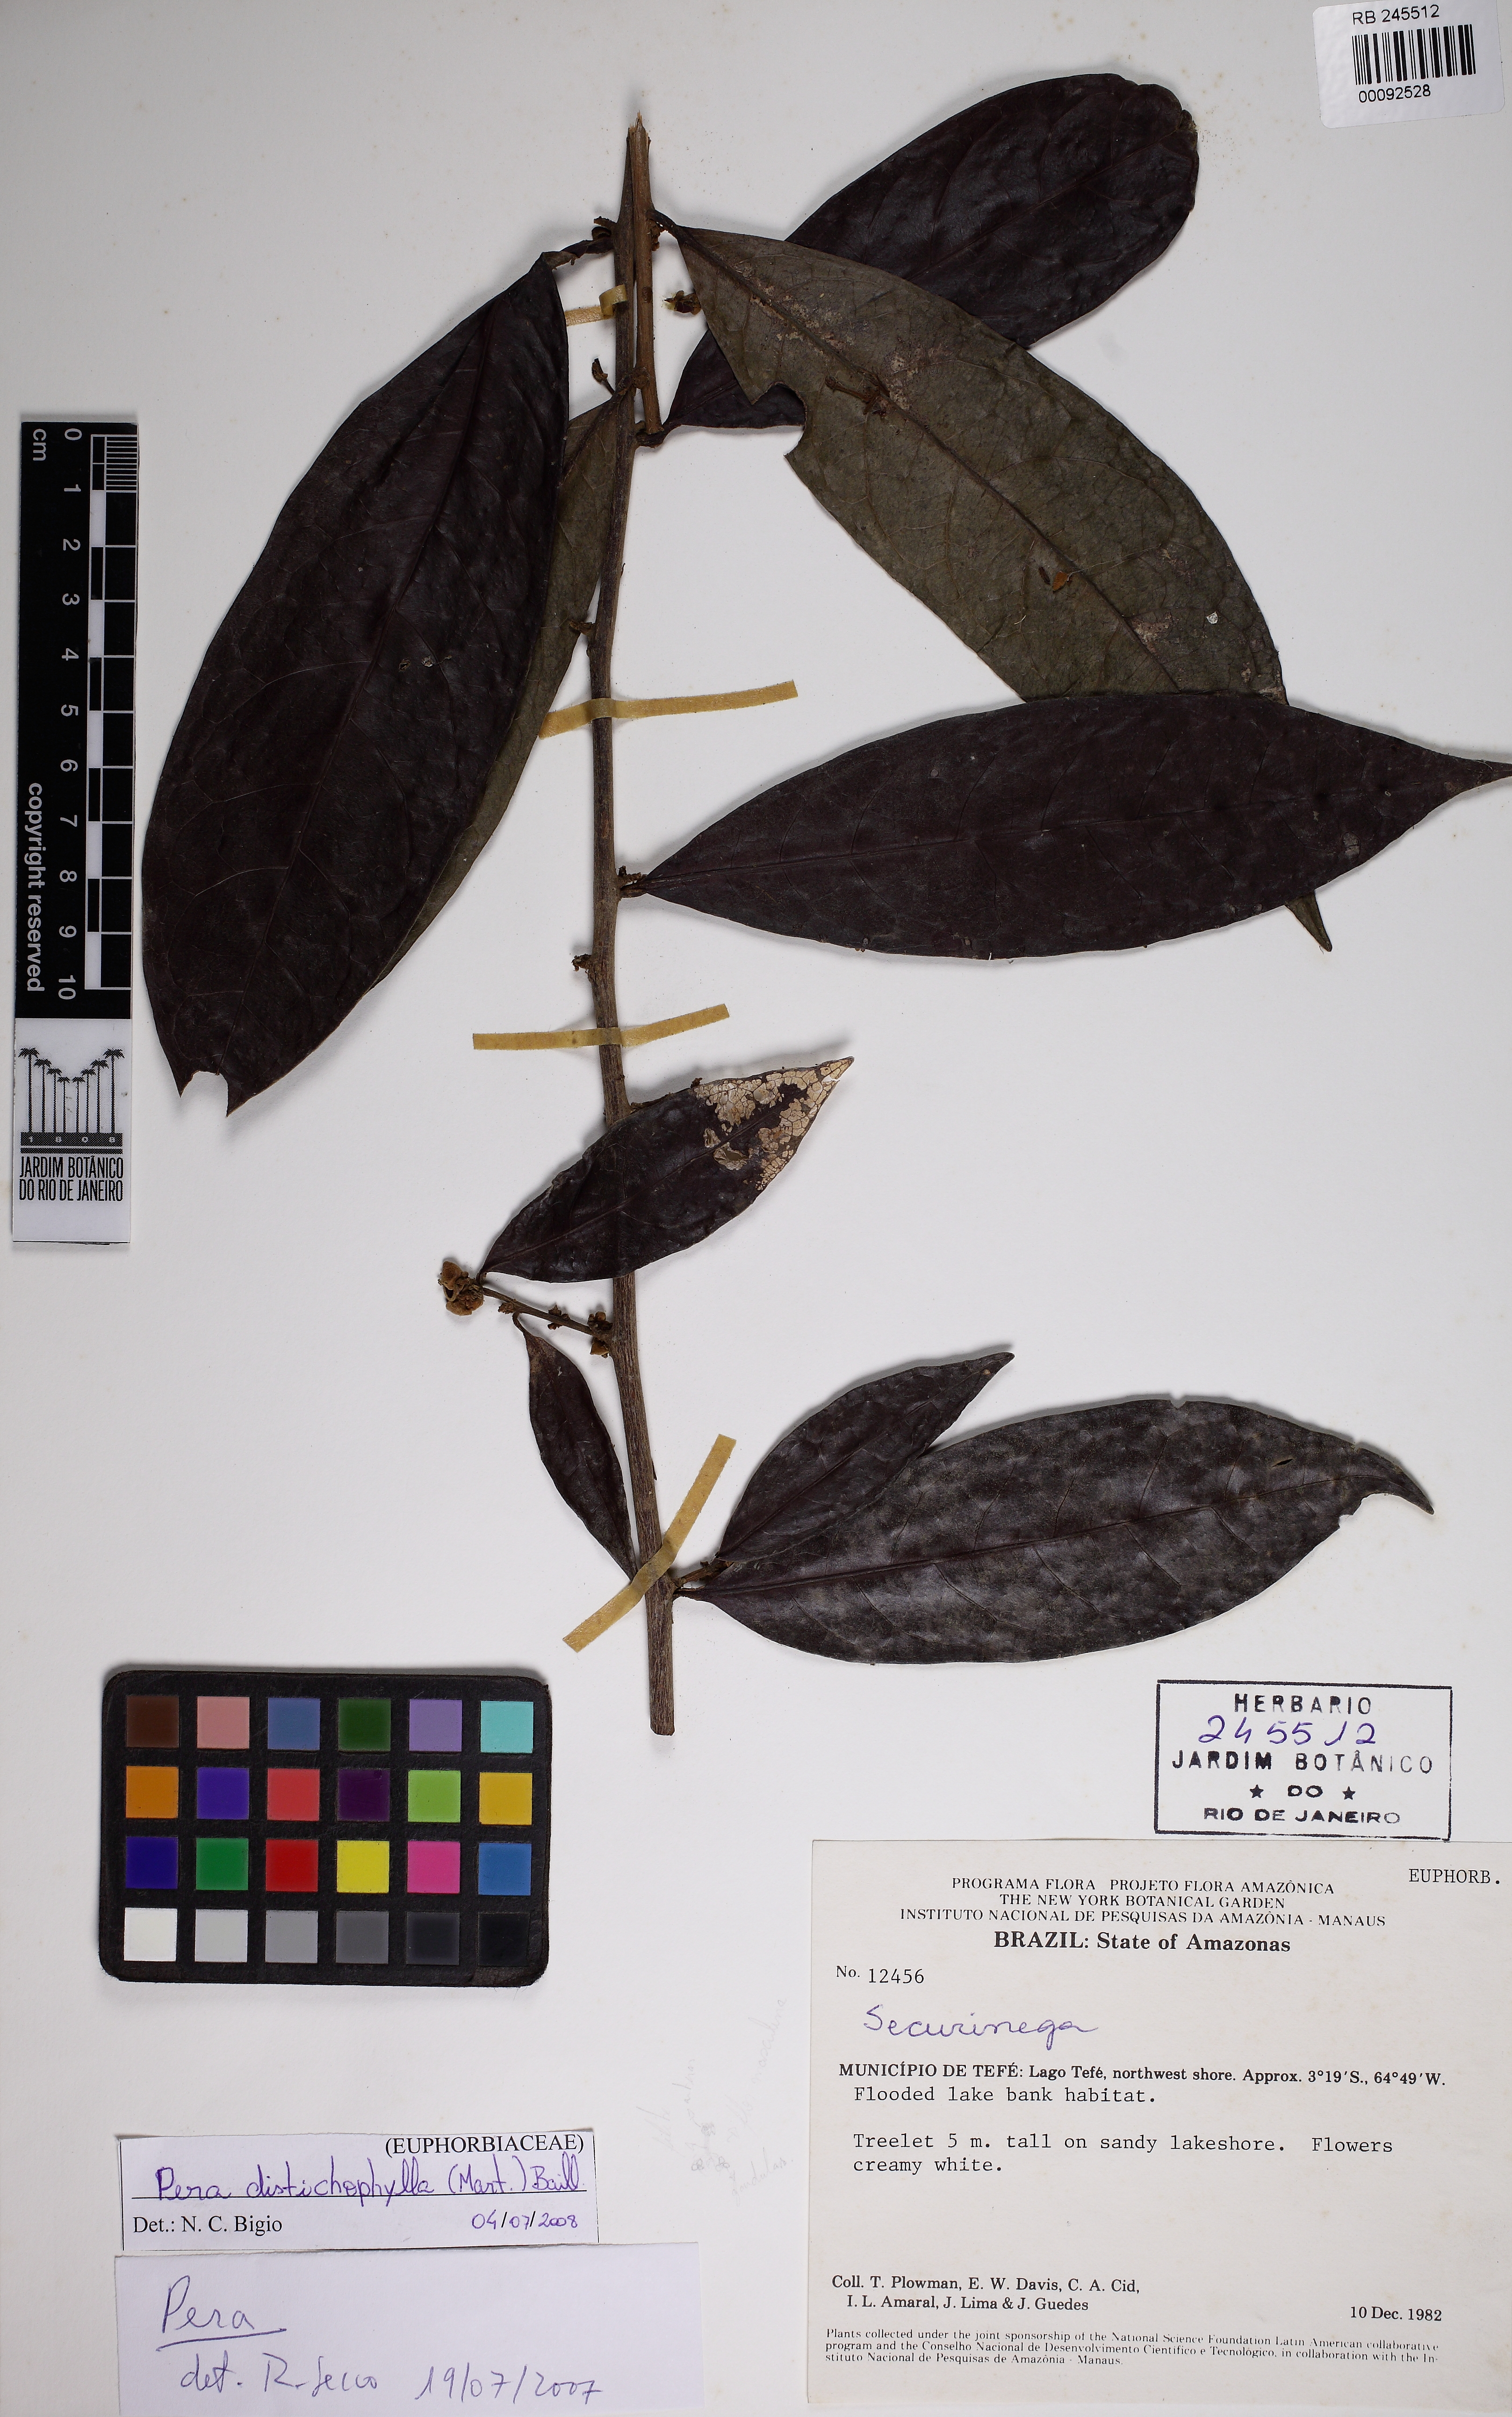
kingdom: Plantae
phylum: Tracheophyta
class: Magnoliopsida
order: Malpighiales
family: Peraceae
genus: Pera
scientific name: Pera distichophylla
